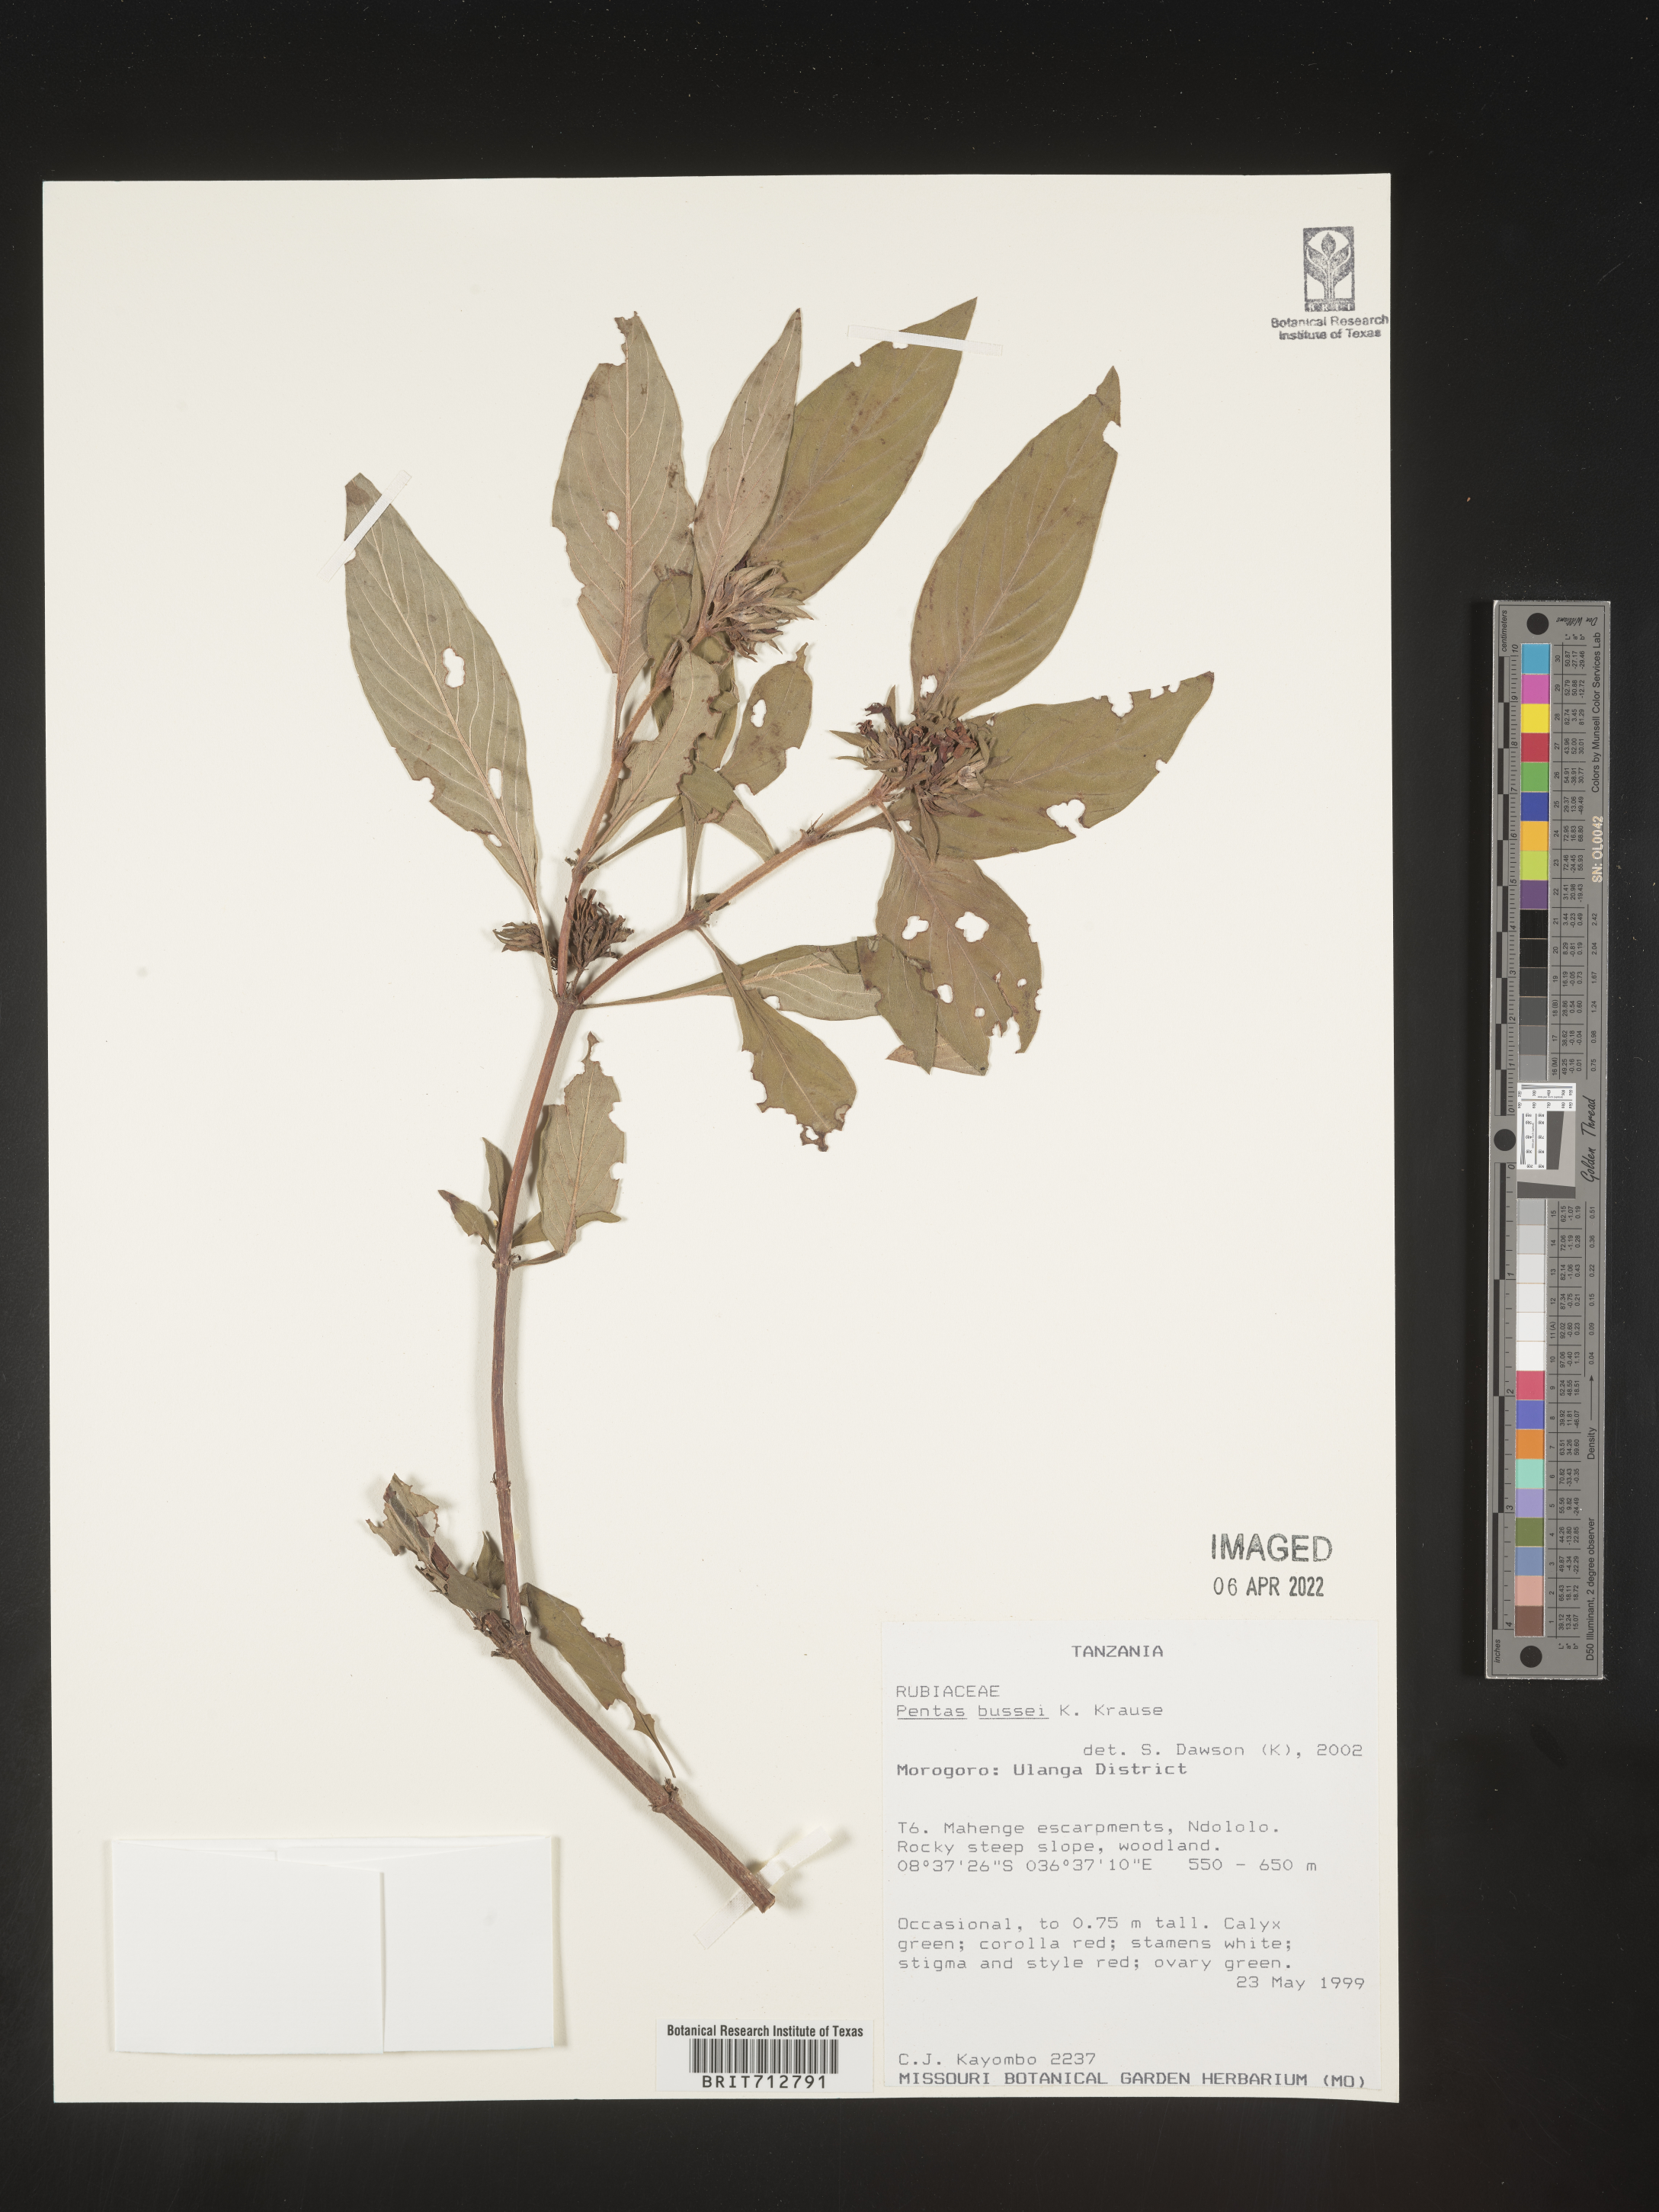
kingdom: Plantae
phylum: Tracheophyta
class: Magnoliopsida
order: Gentianales
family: Rubiaceae
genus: Pentas
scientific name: Pentas
